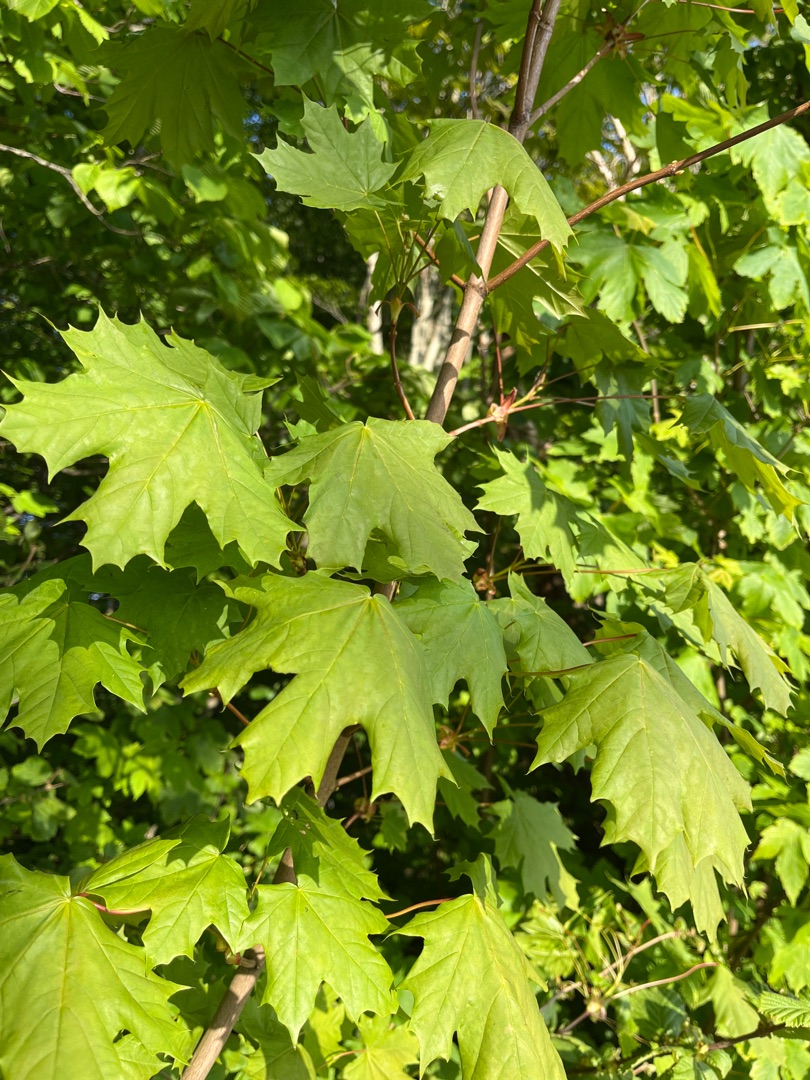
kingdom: Plantae
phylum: Tracheophyta
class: Magnoliopsida
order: Sapindales
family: Sapindaceae
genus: Acer
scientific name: Acer platanoides
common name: Spids-løn
